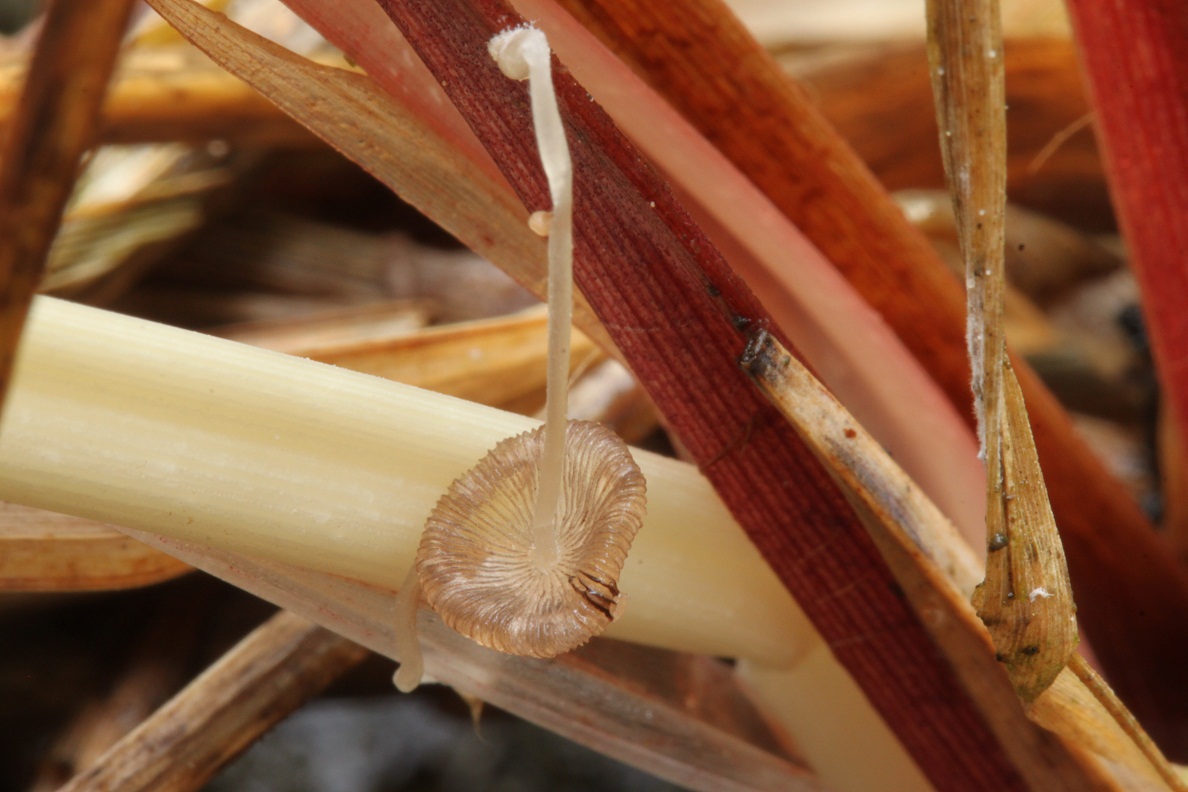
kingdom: Fungi
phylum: Basidiomycota
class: Agaricomycetes
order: Agaricales
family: Psathyrellaceae
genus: Coprinopsis
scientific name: Coprinopsis urticicola
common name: urte-blækhat
